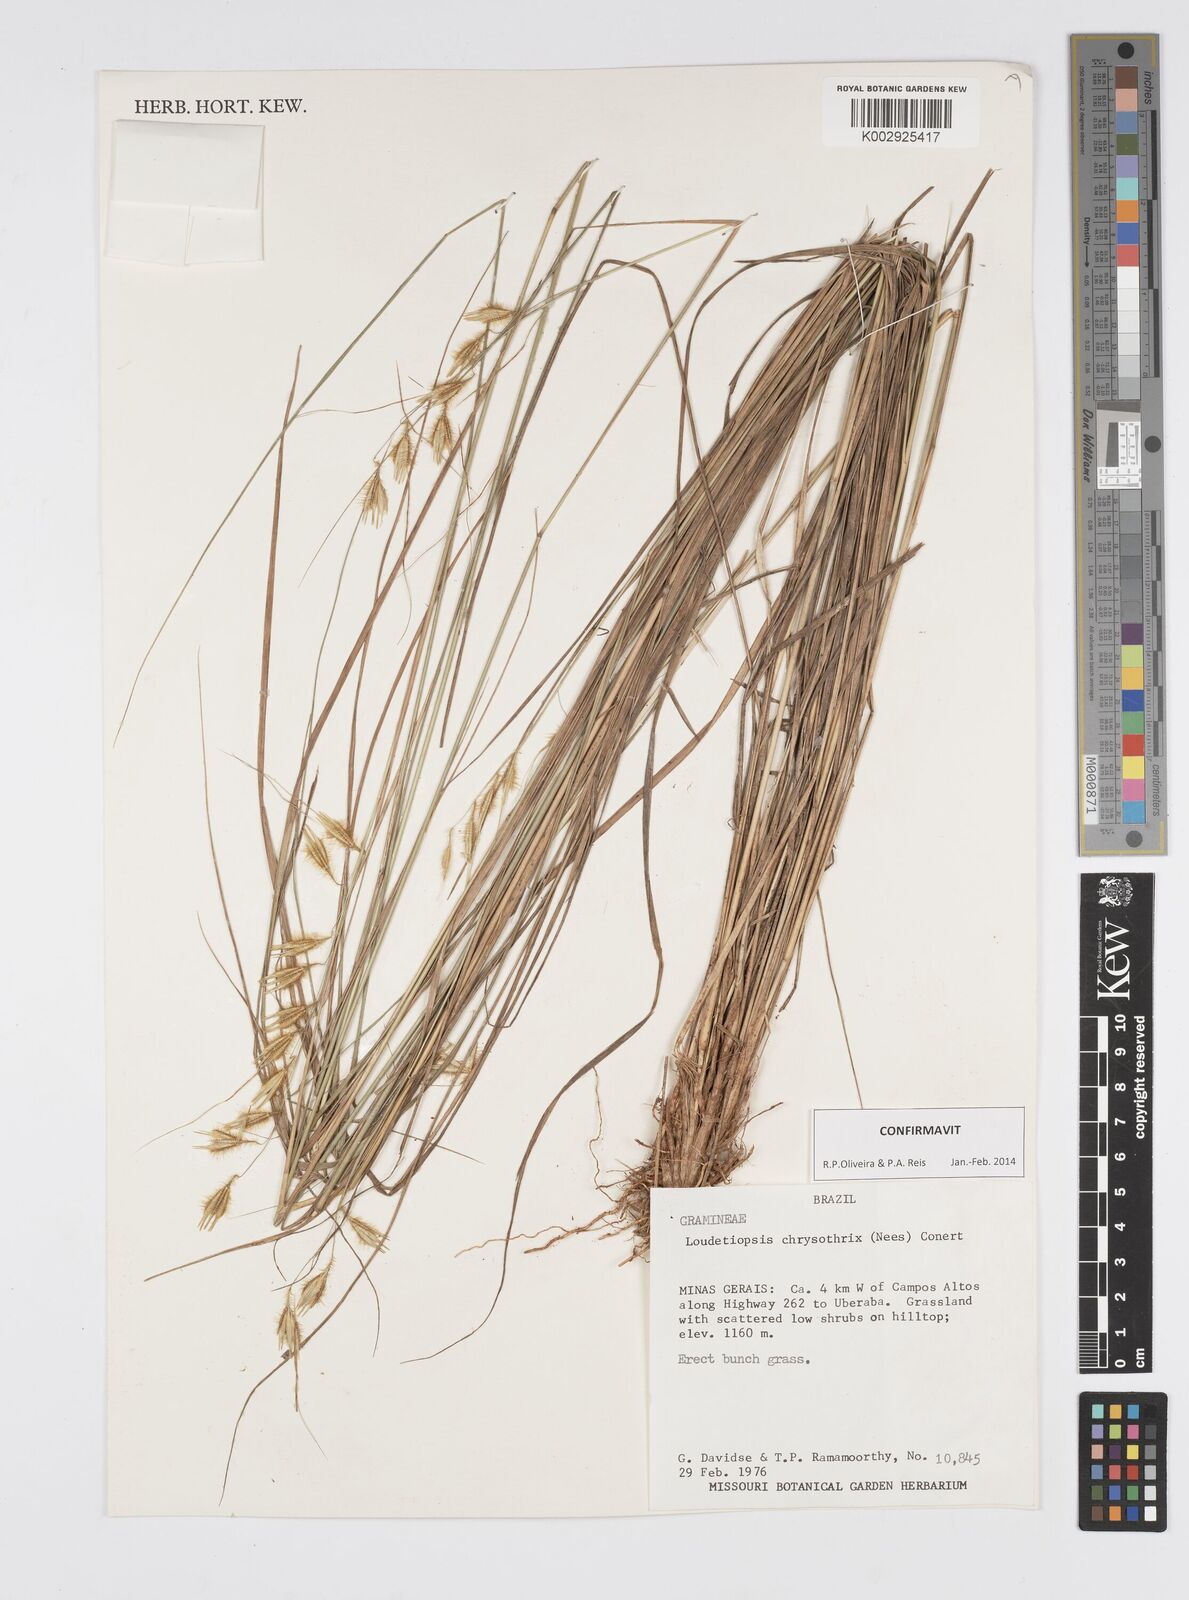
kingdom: Plantae
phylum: Tracheophyta
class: Liliopsida
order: Poales
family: Poaceae
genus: Loudetiopsis
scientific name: Loudetiopsis chrysothrix
